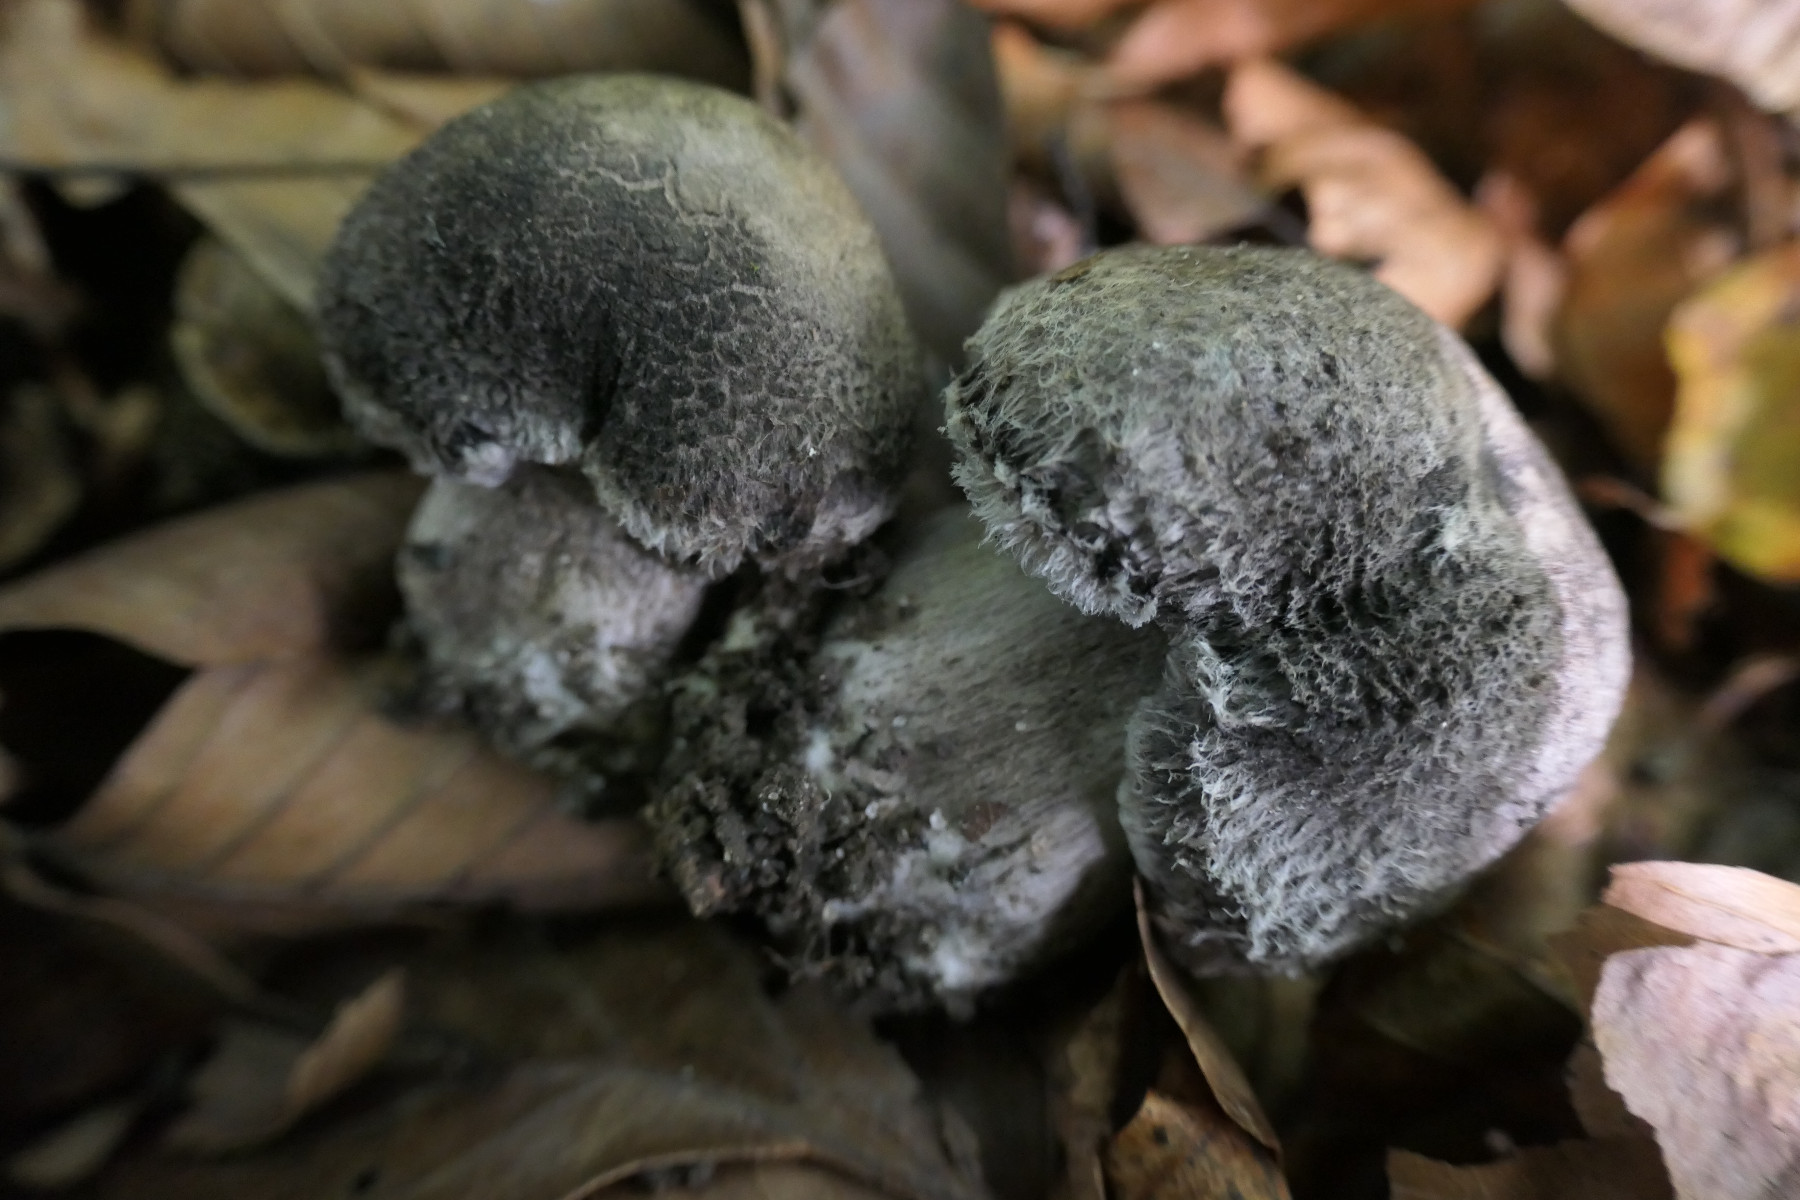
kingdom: Fungi
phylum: Basidiomycota
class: Agaricomycetes
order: Agaricales
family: Tricholomataceae
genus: Tricholoma
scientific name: Tricholoma atrosquamosum
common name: sortskællet ridderhat
